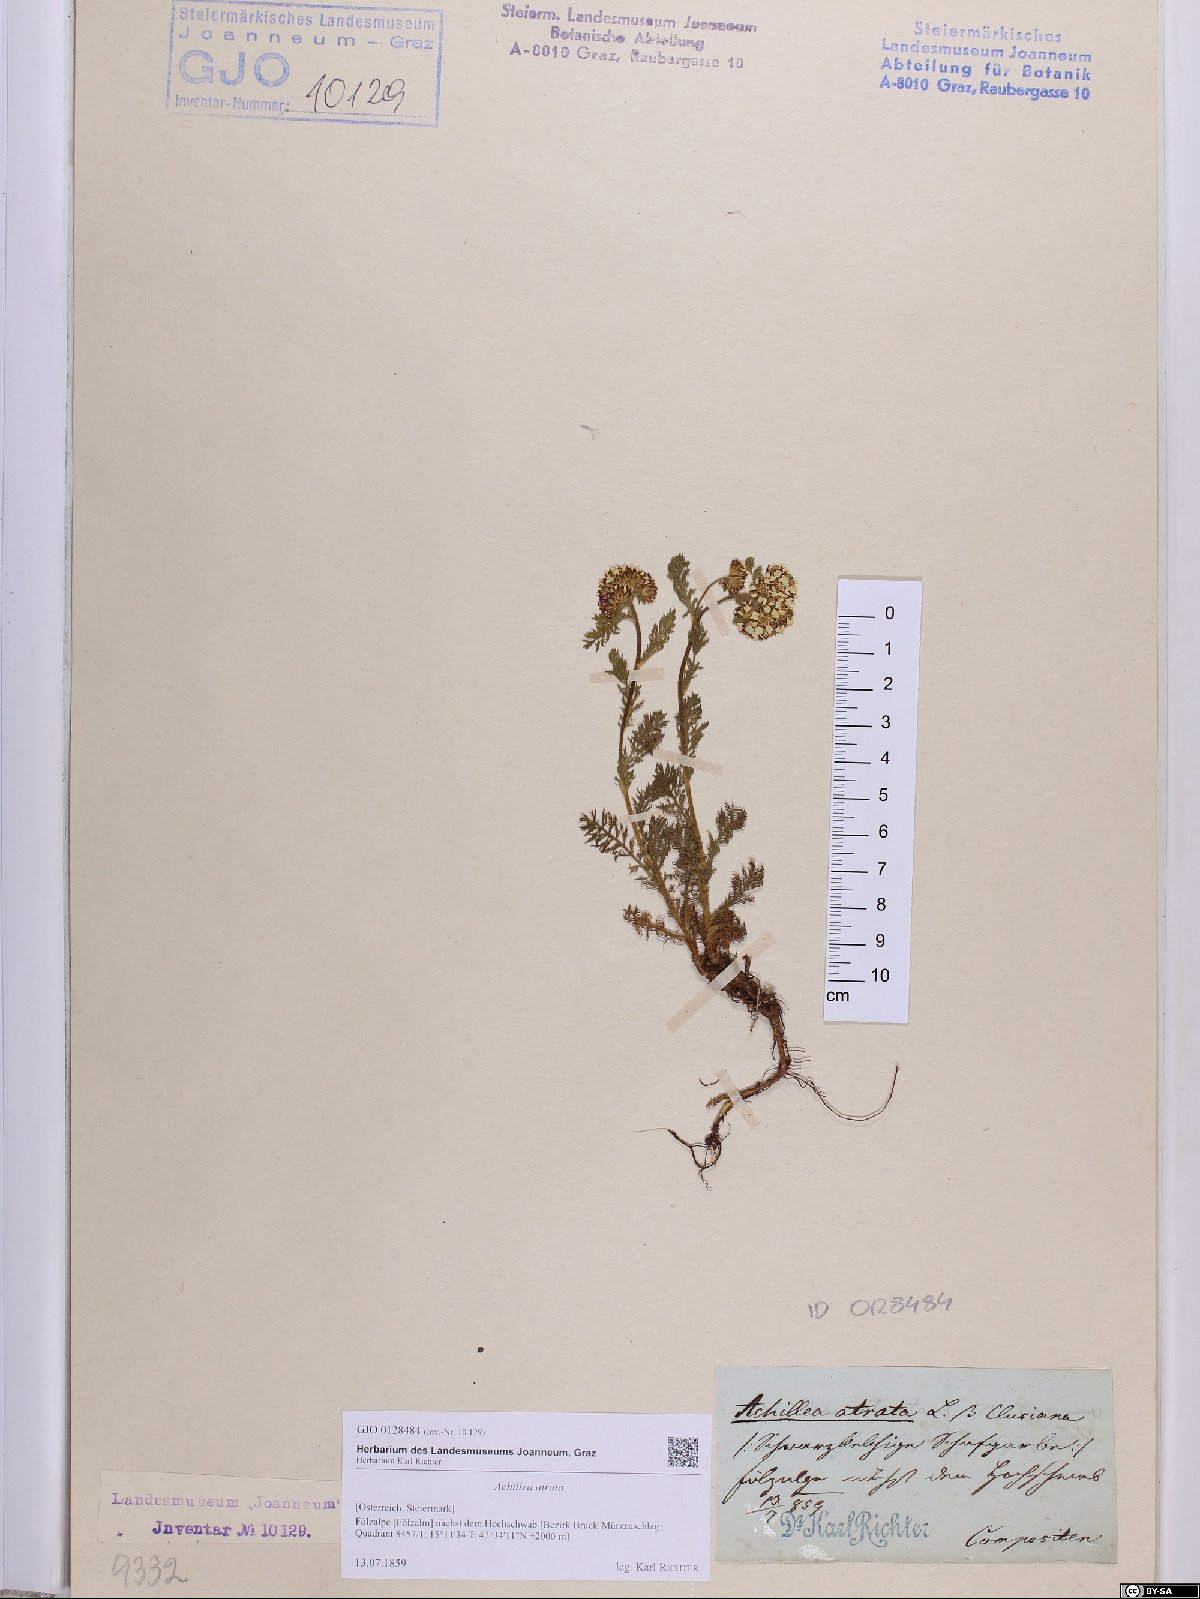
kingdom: Plantae
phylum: Tracheophyta
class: Magnoliopsida
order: Asterales
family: Asteraceae
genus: Achillea
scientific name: Achillea atrata
